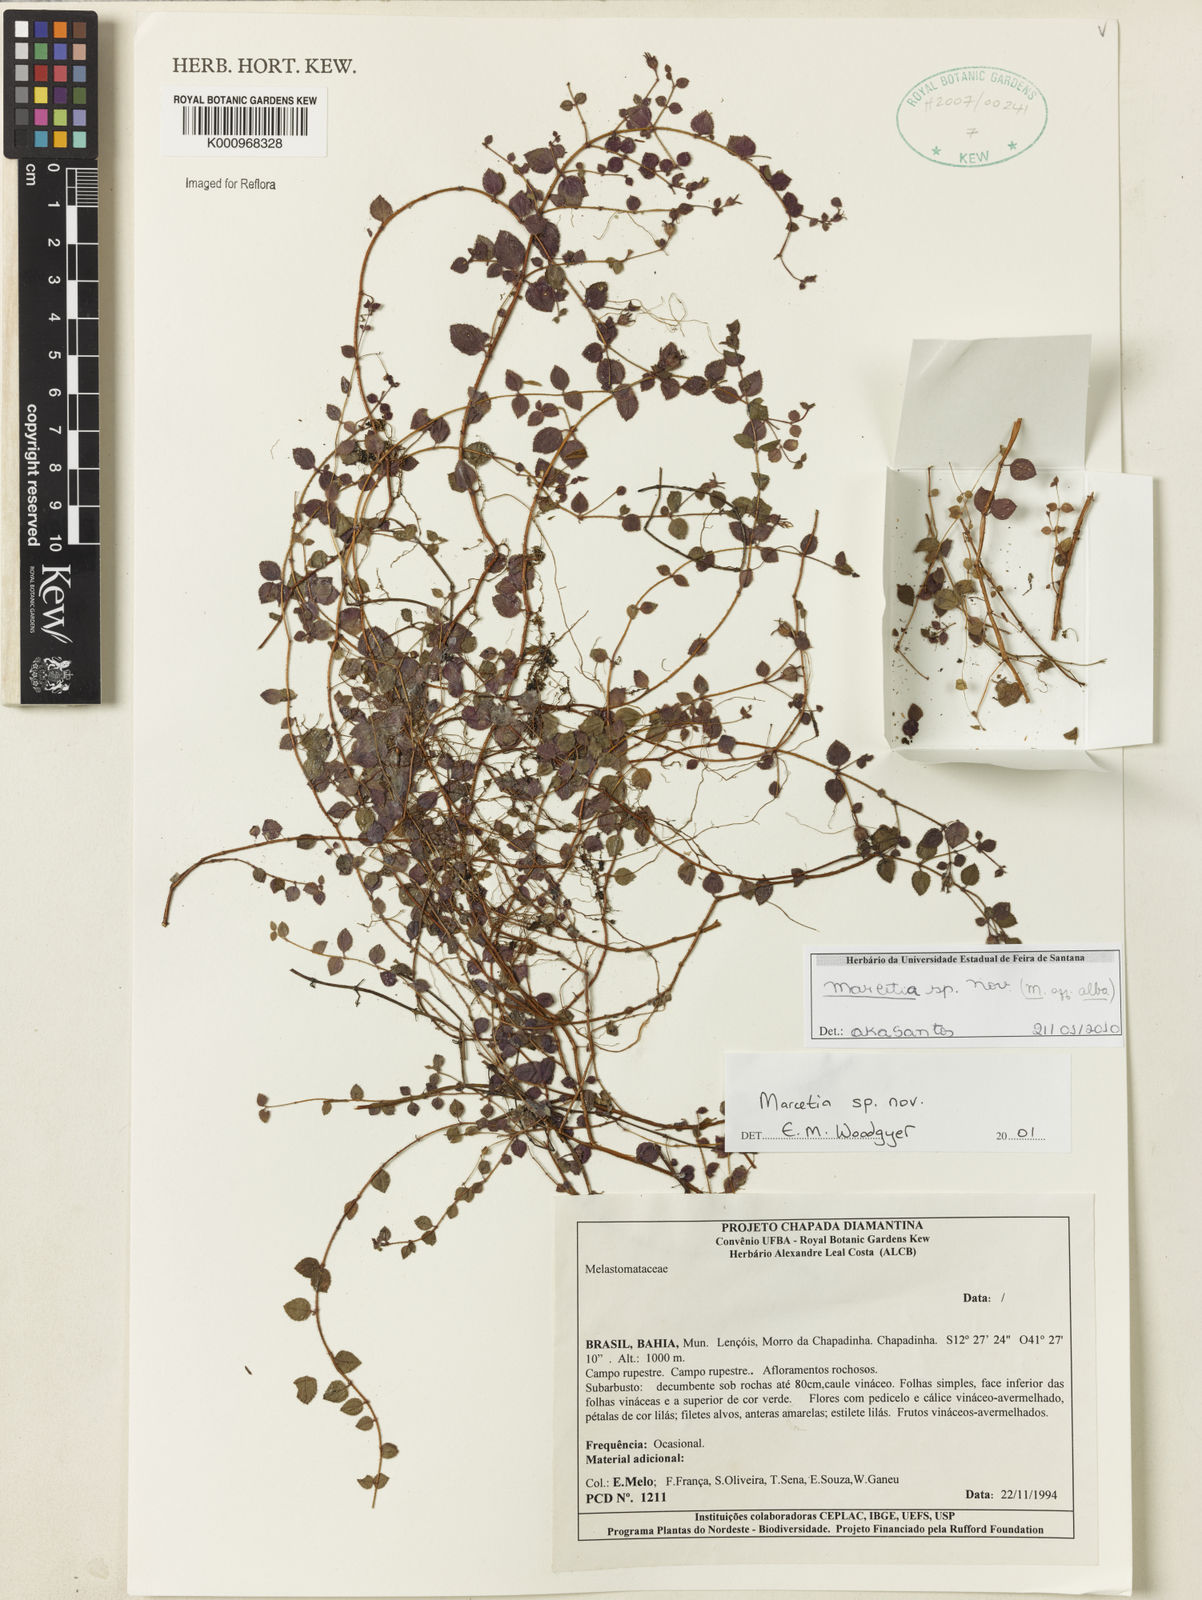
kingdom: Plantae
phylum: Tracheophyta
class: Magnoliopsida
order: Myrtales
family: Melastomataceae
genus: Marcetia
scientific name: Marcetia alba
